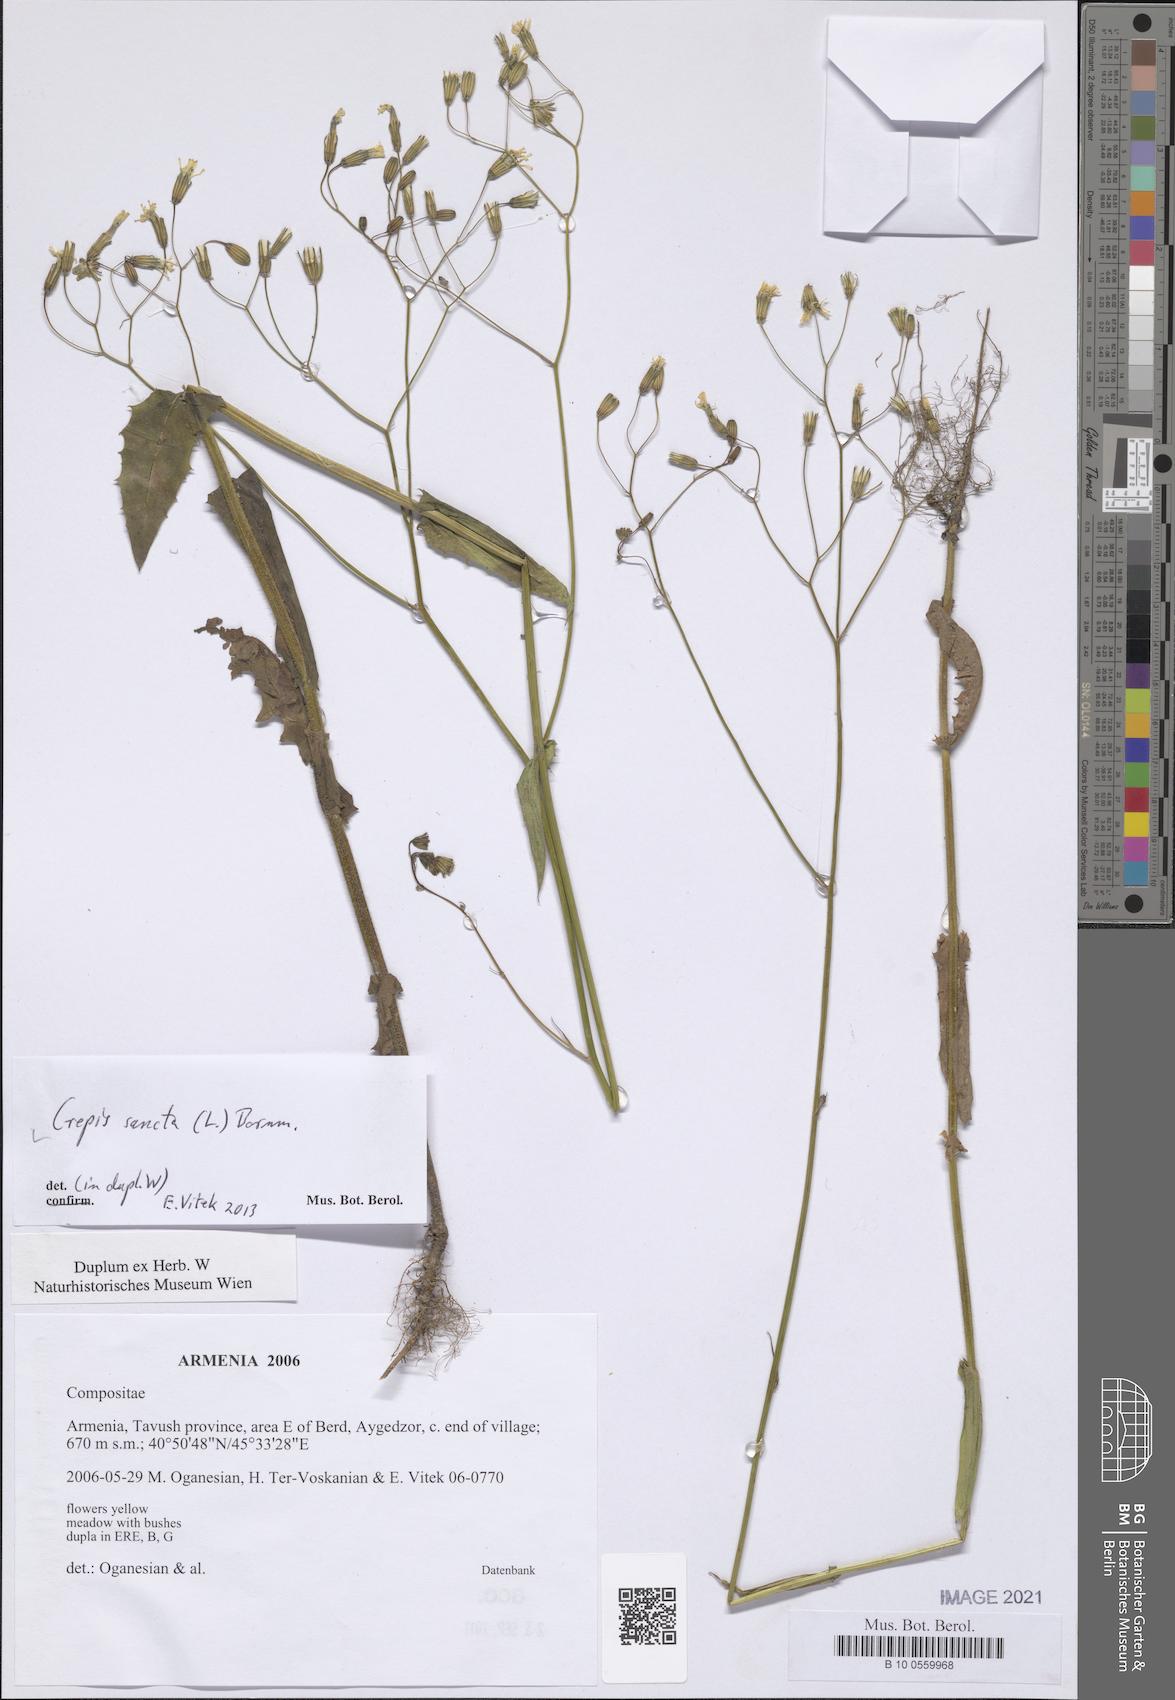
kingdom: Plantae
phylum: Tracheophyta
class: Magnoliopsida
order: Asterales
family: Asteraceae
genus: Crepis
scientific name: Crepis sancta
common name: Hawk's-beard
